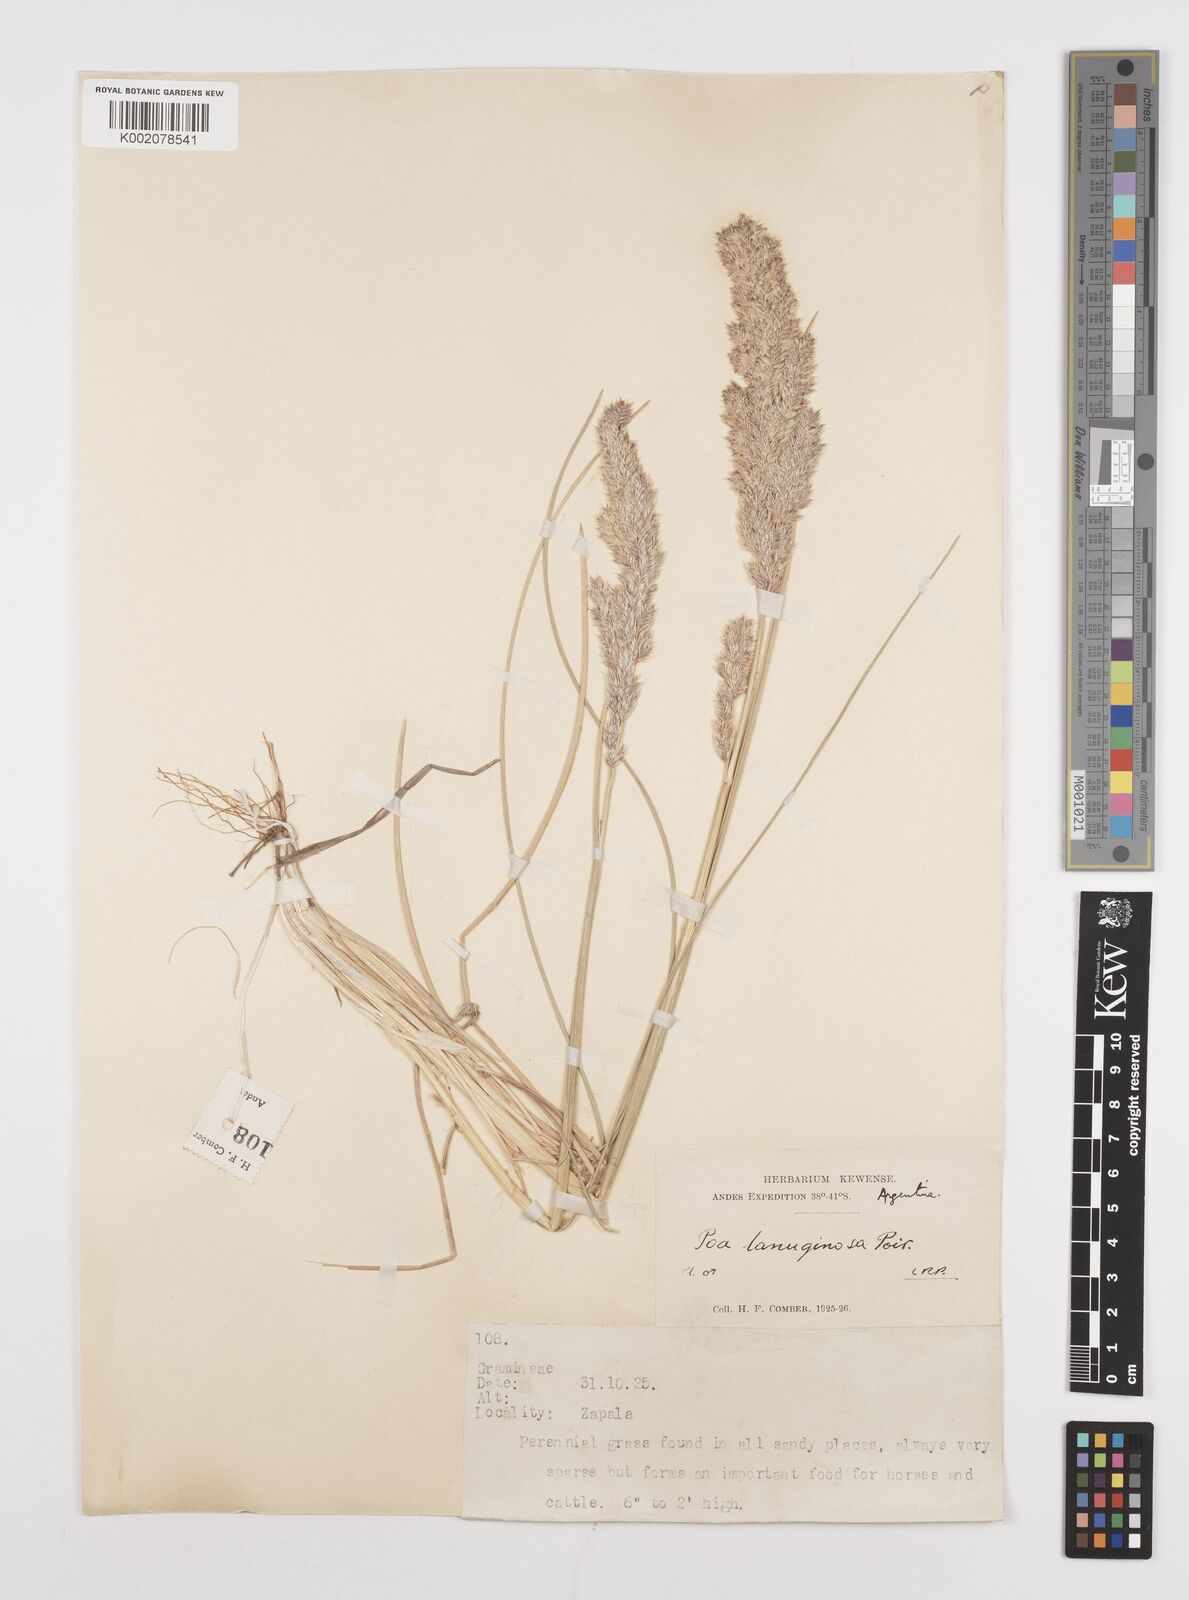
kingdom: Plantae
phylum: Tracheophyta
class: Liliopsida
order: Poales
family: Poaceae
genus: Poa
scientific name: Poa lanuginosa
